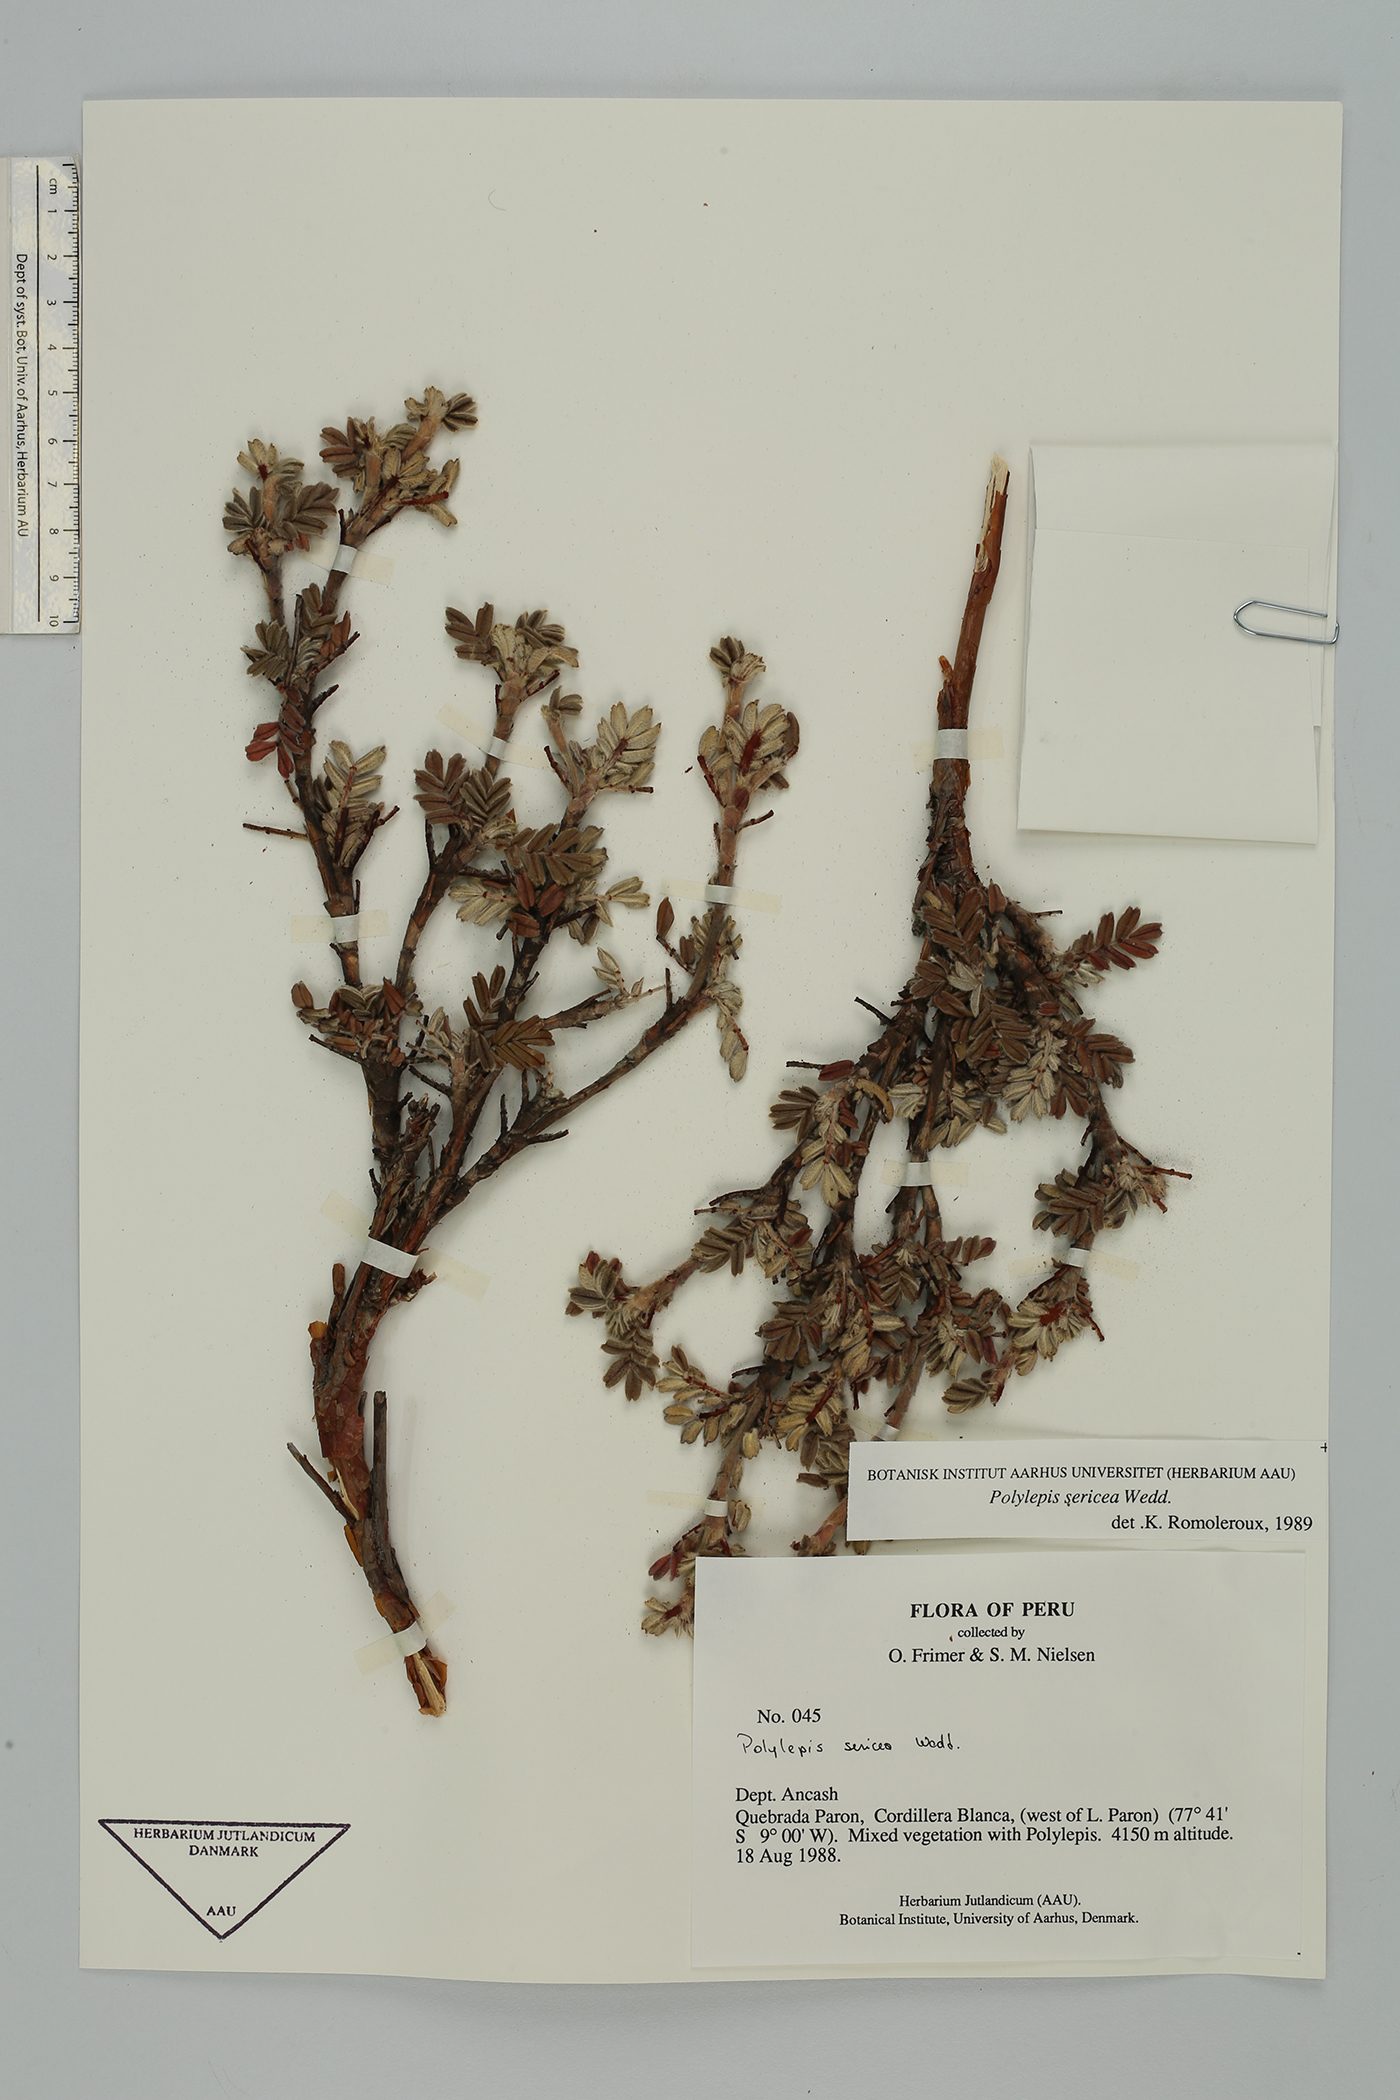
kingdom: Plantae
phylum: Tracheophyta
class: Magnoliopsida
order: Rosales
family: Rosaceae
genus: Polylepis
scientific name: Polylepis sericea
